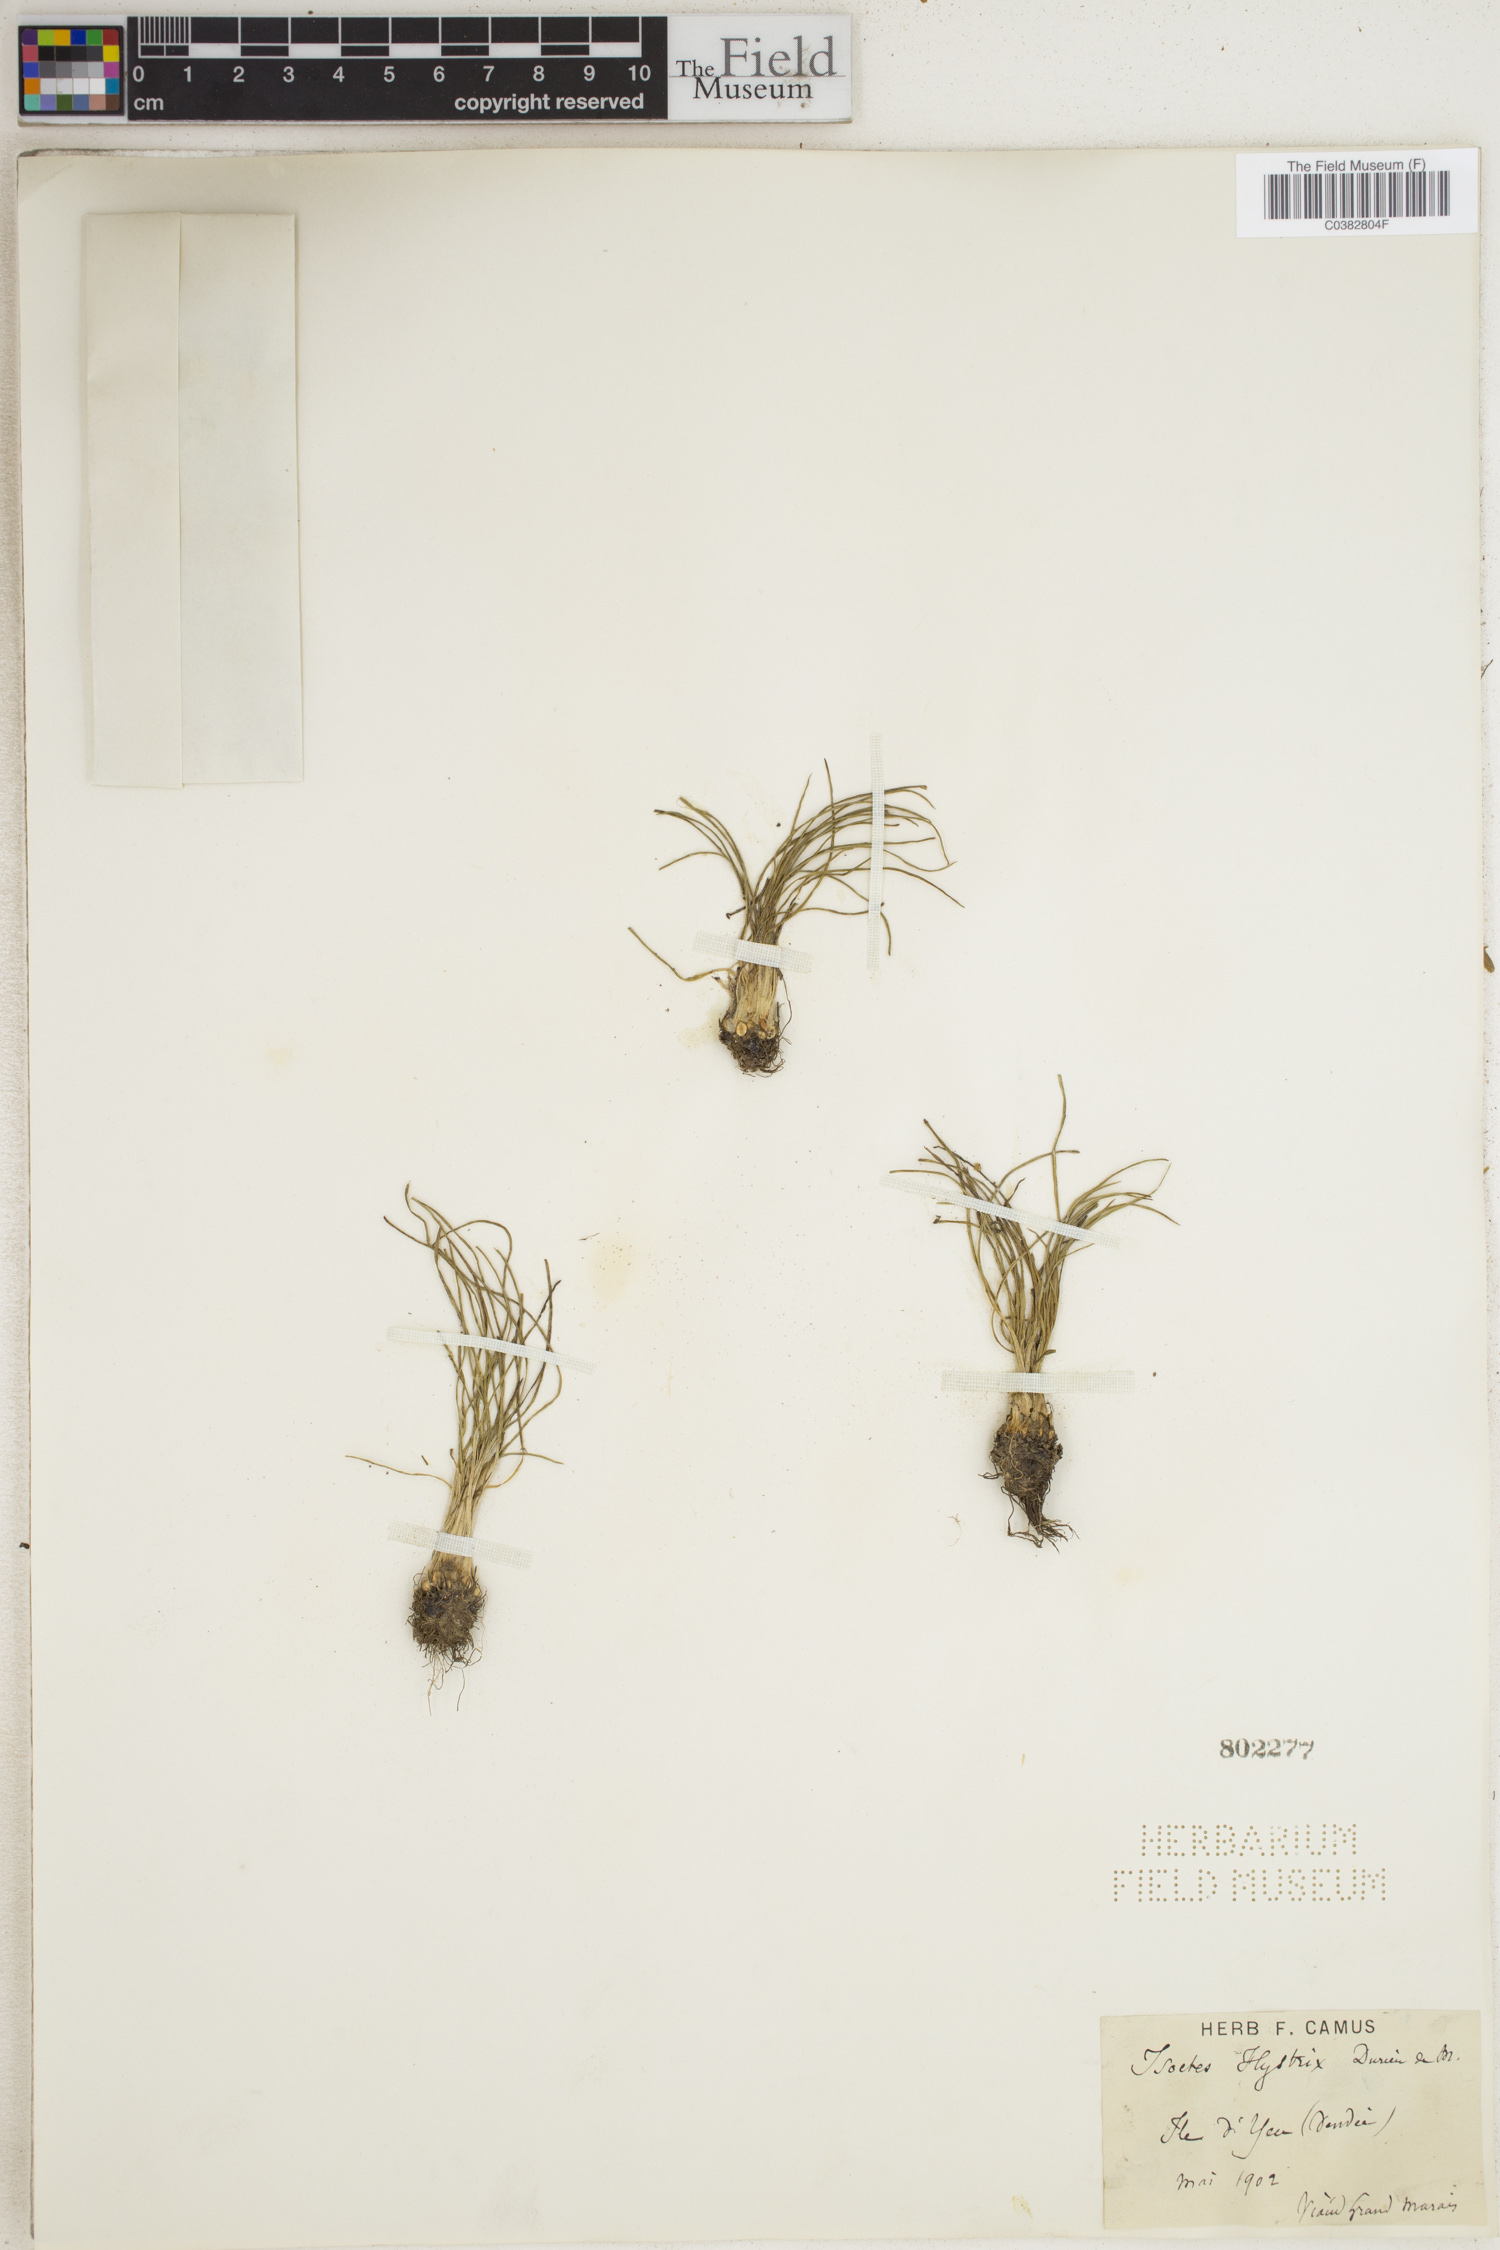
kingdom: Plantae
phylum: Tracheophyta
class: Lycopodiopsida
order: Isoetales
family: Isoetaceae
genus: Isoetes
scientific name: Isoetes histrix
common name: Land quillwort
